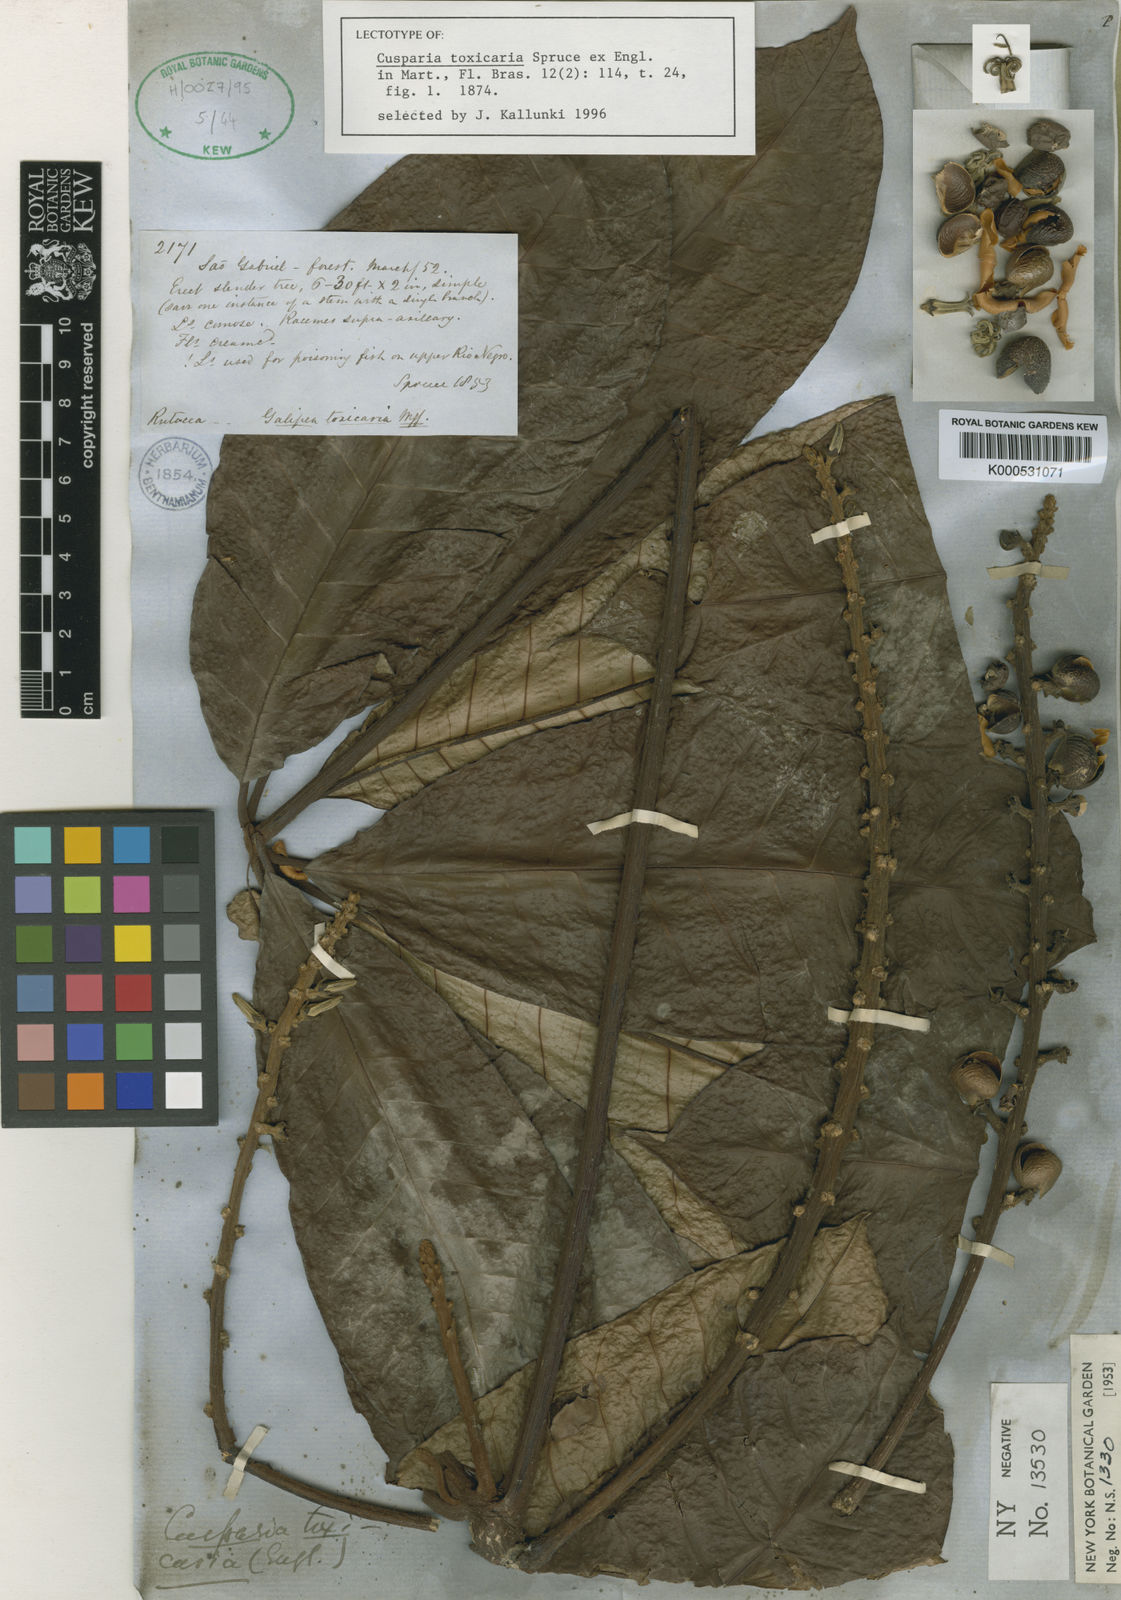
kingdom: Plantae
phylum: Tracheophyta
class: Magnoliopsida
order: Sapindales
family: Rutaceae
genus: Conchocarpus
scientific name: Conchocarpus toxicarius
